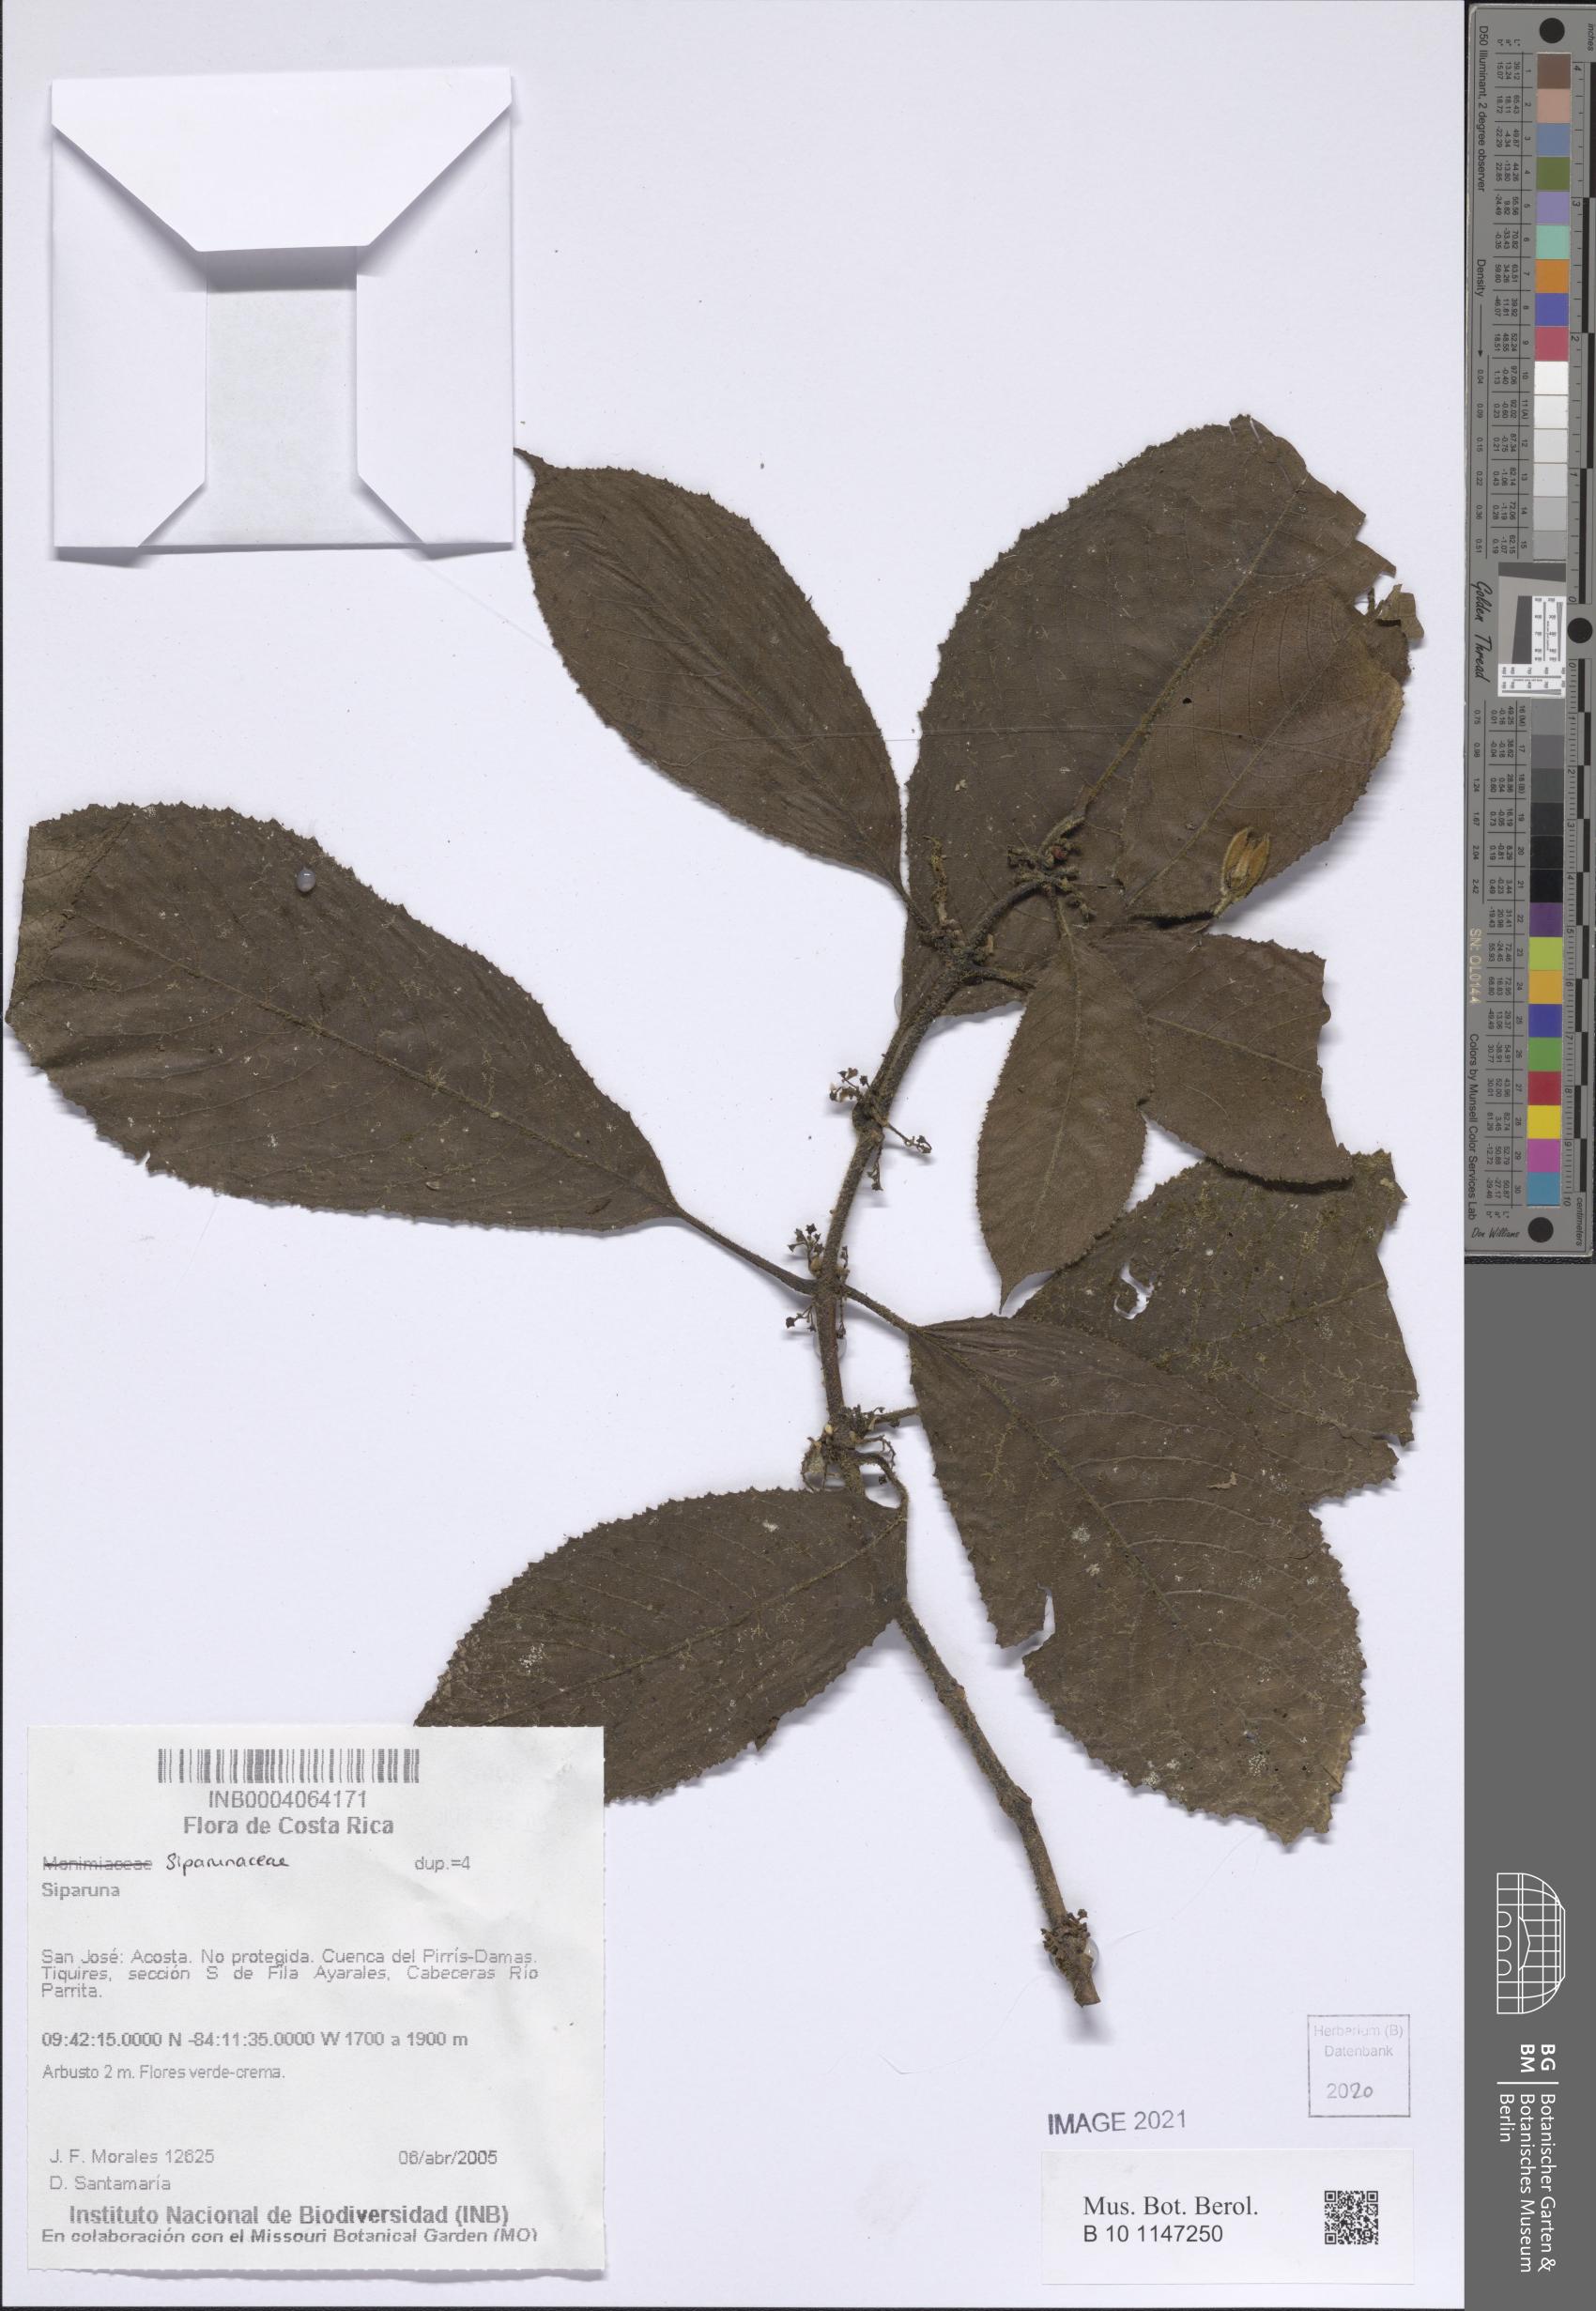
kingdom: Plantae
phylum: Tracheophyta
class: Magnoliopsida
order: Laurales
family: Siparunaceae
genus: Siparuna
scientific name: Siparuna
